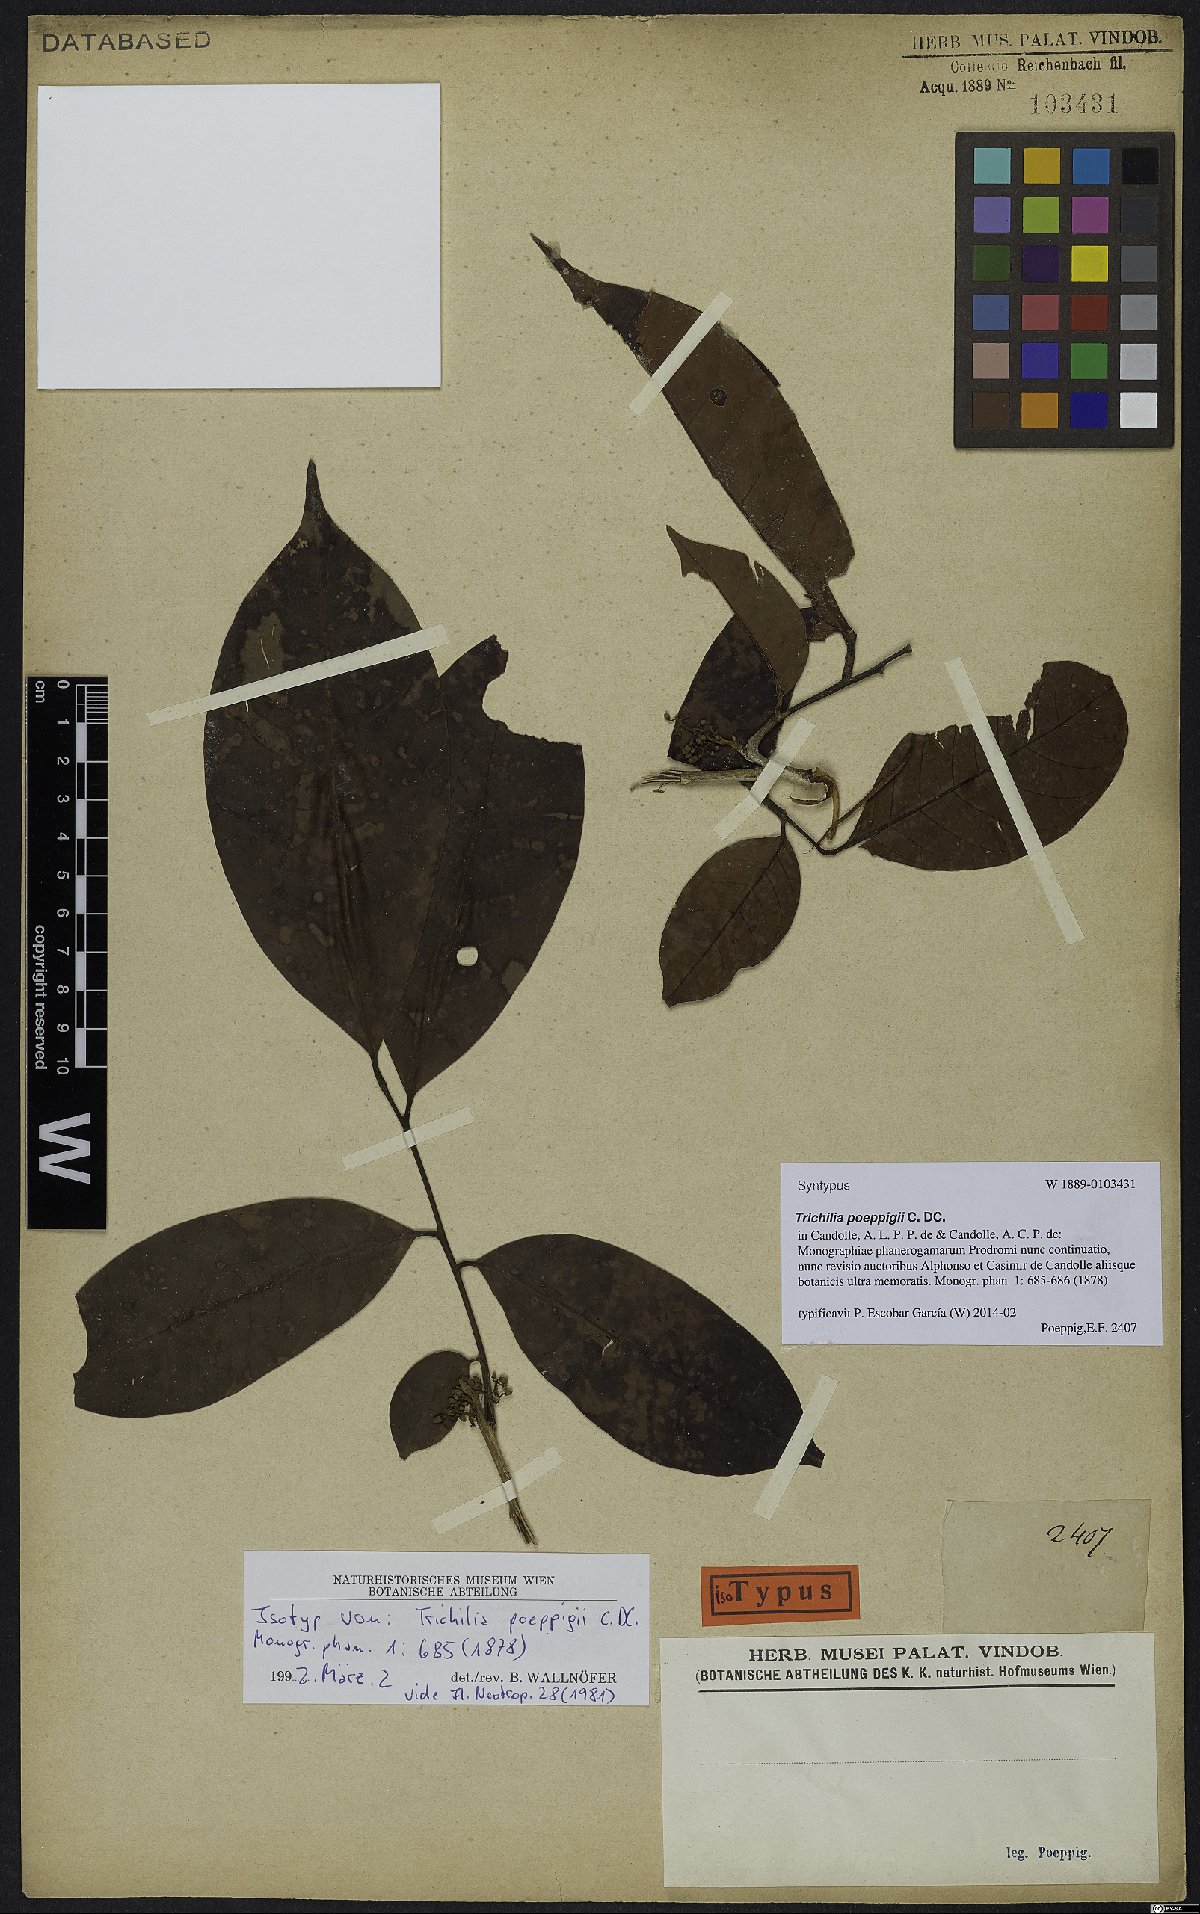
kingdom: Plantae
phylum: Tracheophyta
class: Magnoliopsida
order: Sapindales
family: Meliaceae
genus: Trichilia
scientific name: Trichilia poeppigii
